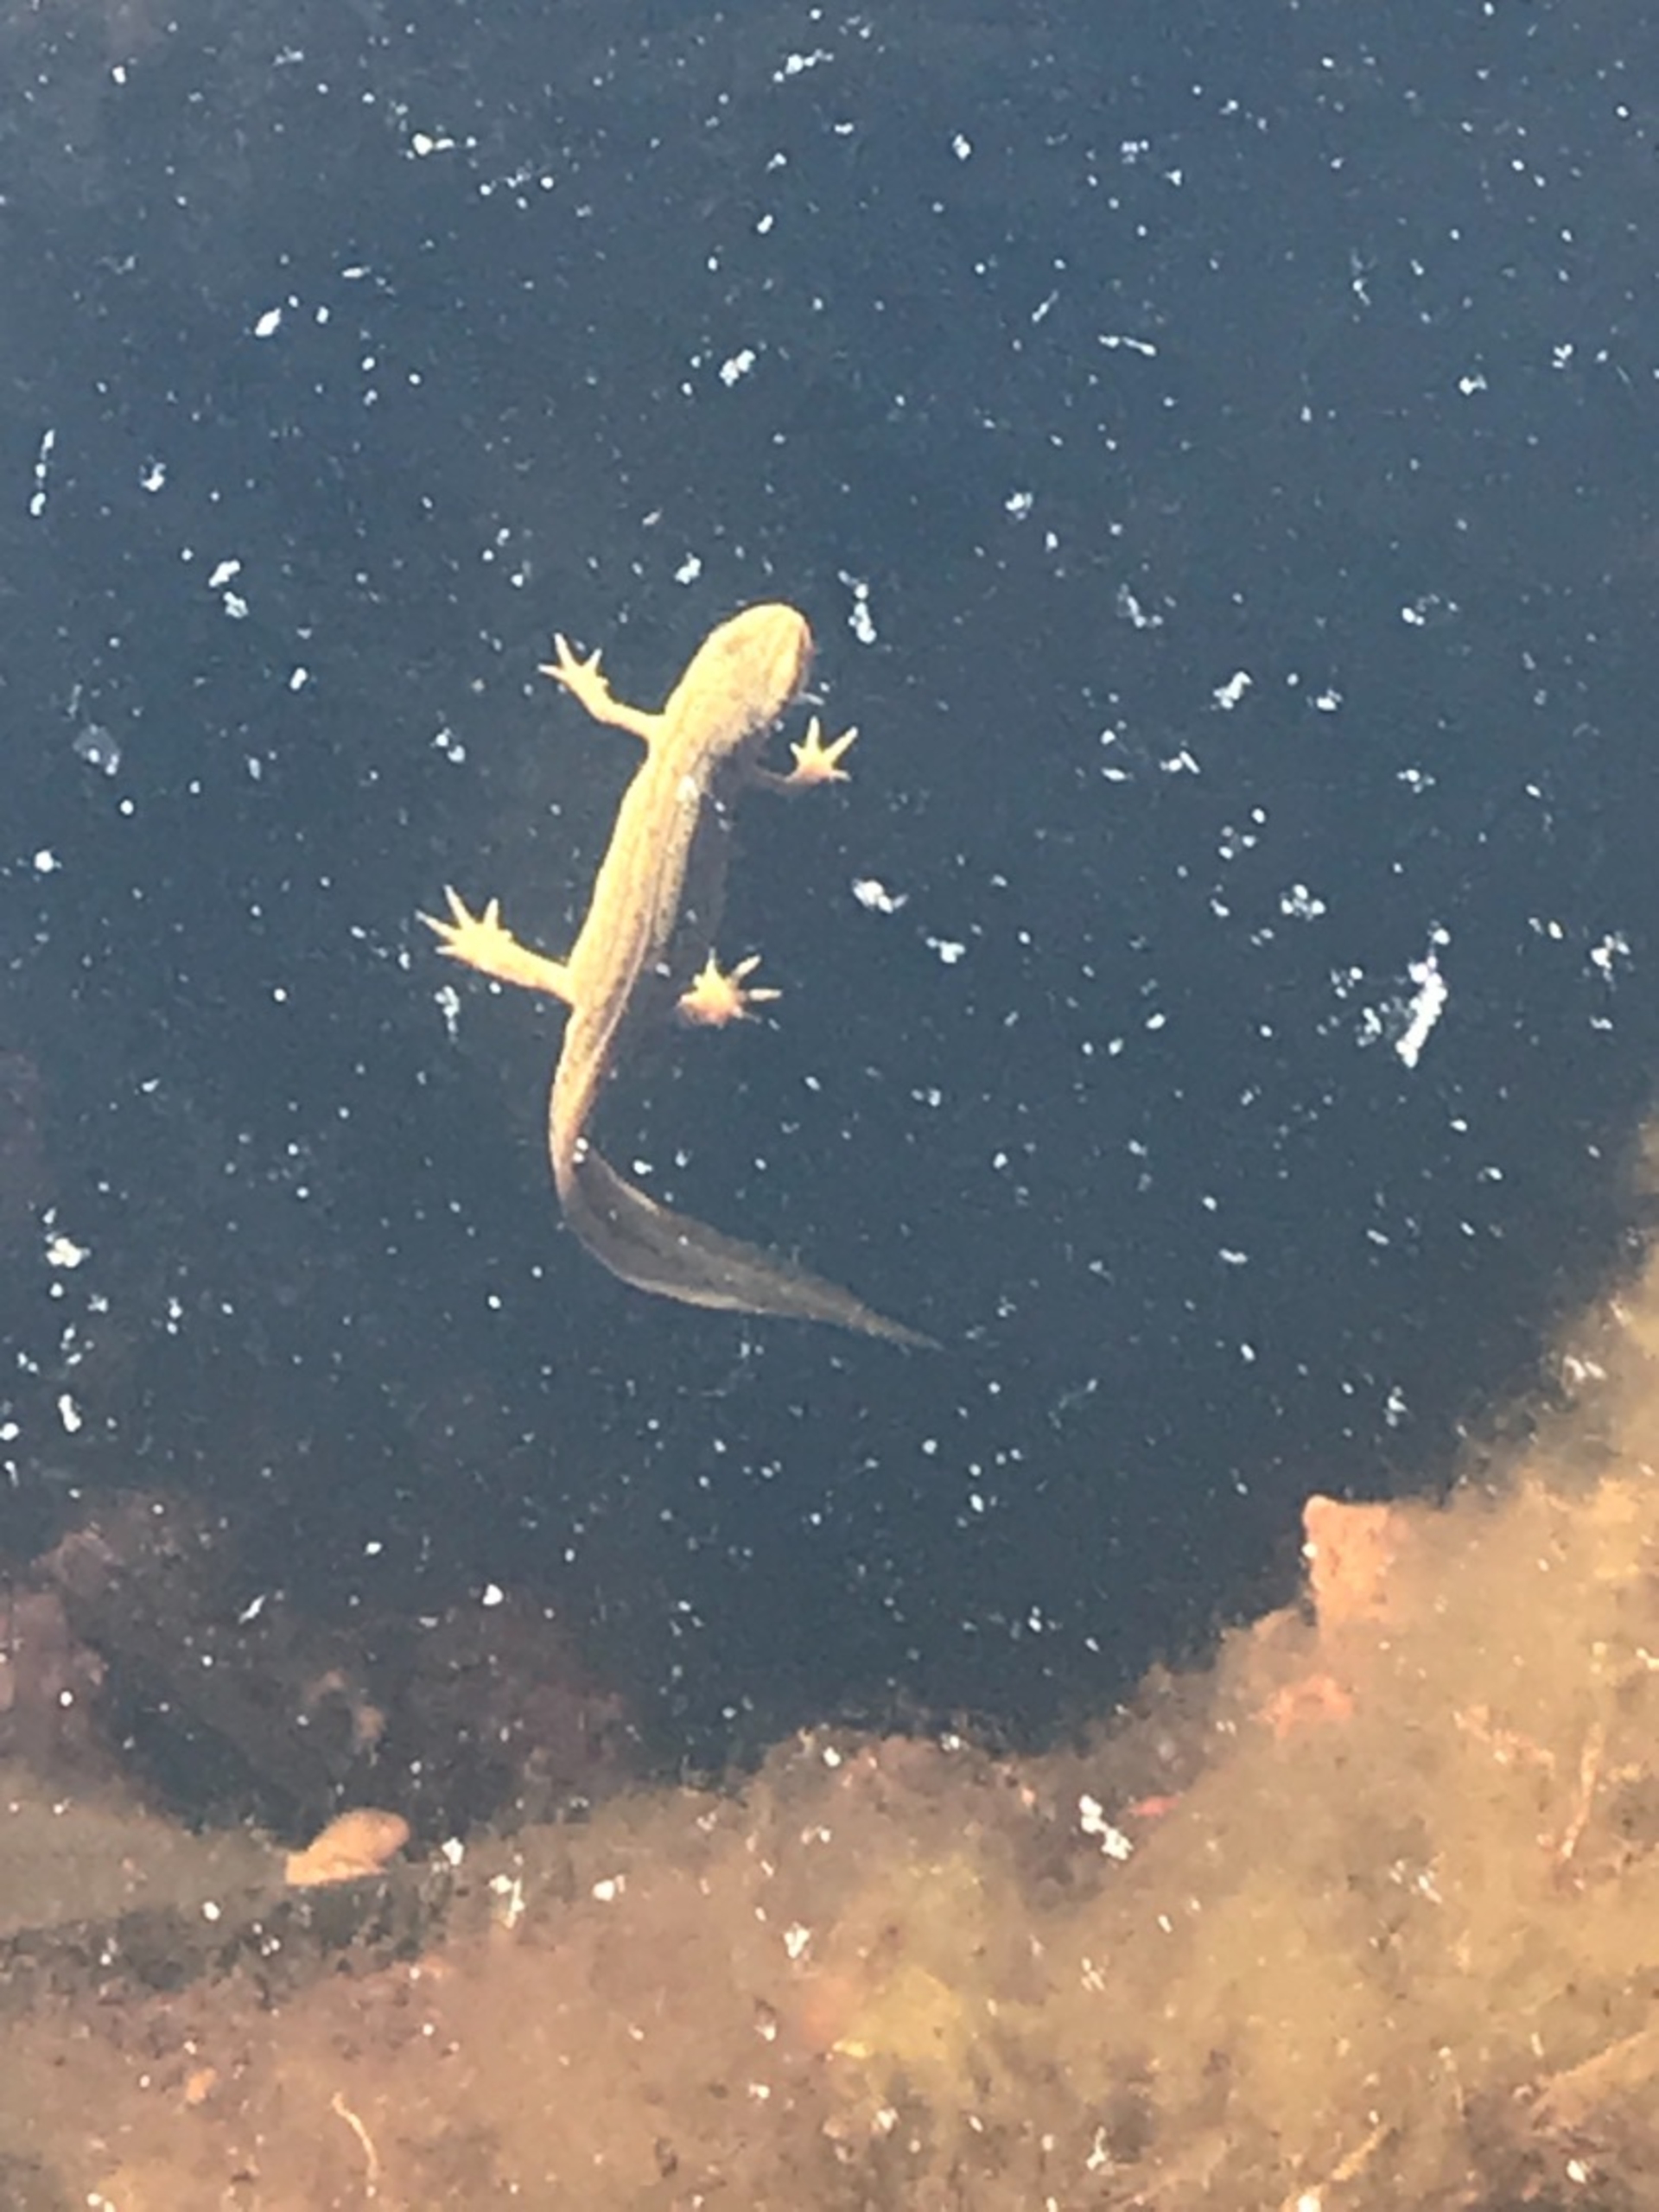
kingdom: Animalia
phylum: Chordata
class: Amphibia
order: Caudata
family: Salamandridae
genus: Lissotriton
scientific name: Lissotriton vulgaris
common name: Lille vandsalamander
